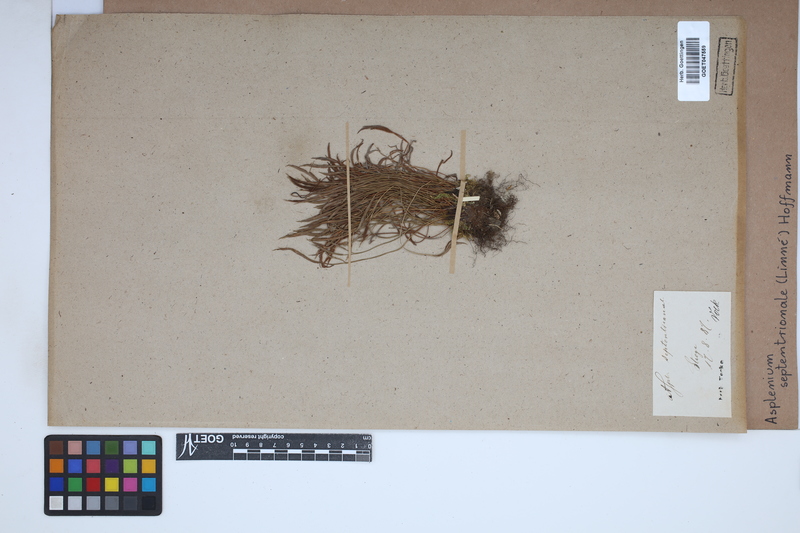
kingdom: Plantae
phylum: Tracheophyta
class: Polypodiopsida
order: Polypodiales
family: Aspleniaceae
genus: Asplenium
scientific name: Asplenium septentrionale
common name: Forked spleenwort
